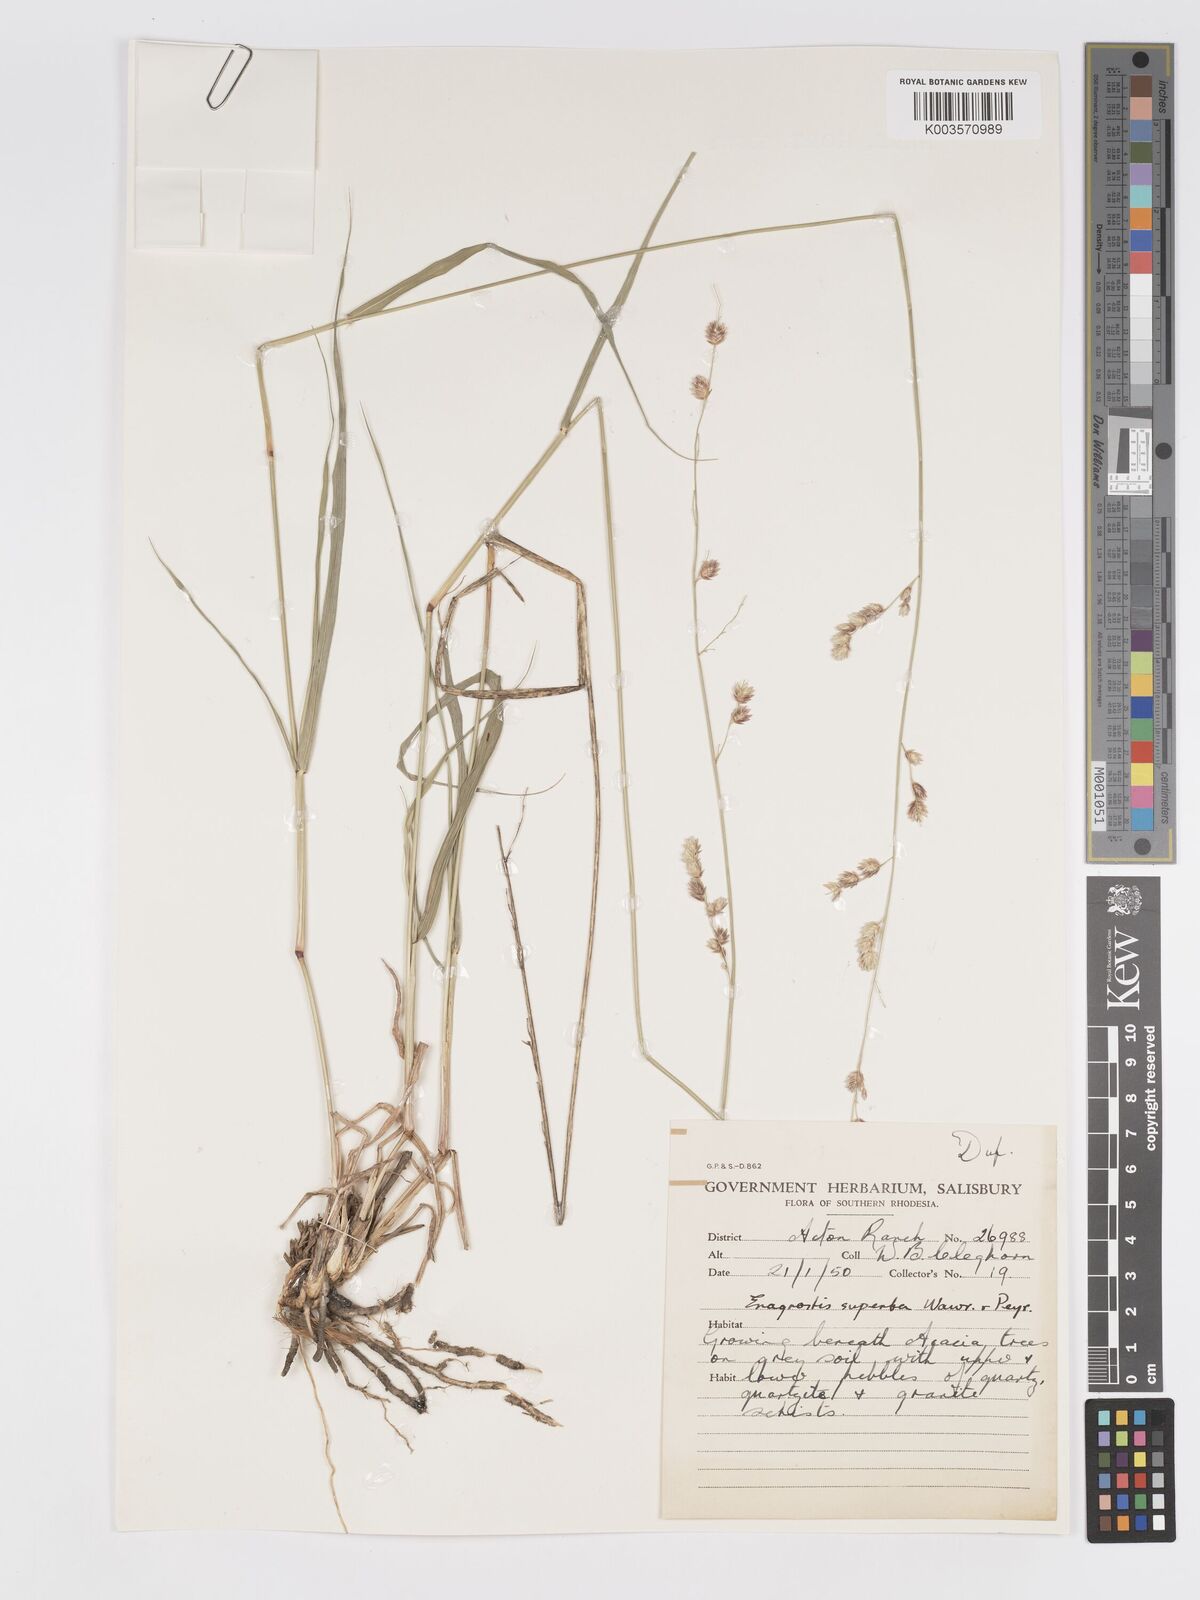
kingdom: Plantae
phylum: Tracheophyta
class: Liliopsida
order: Poales
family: Poaceae
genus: Eragrostis
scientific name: Eragrostis superba
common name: Wilman lovegrass
